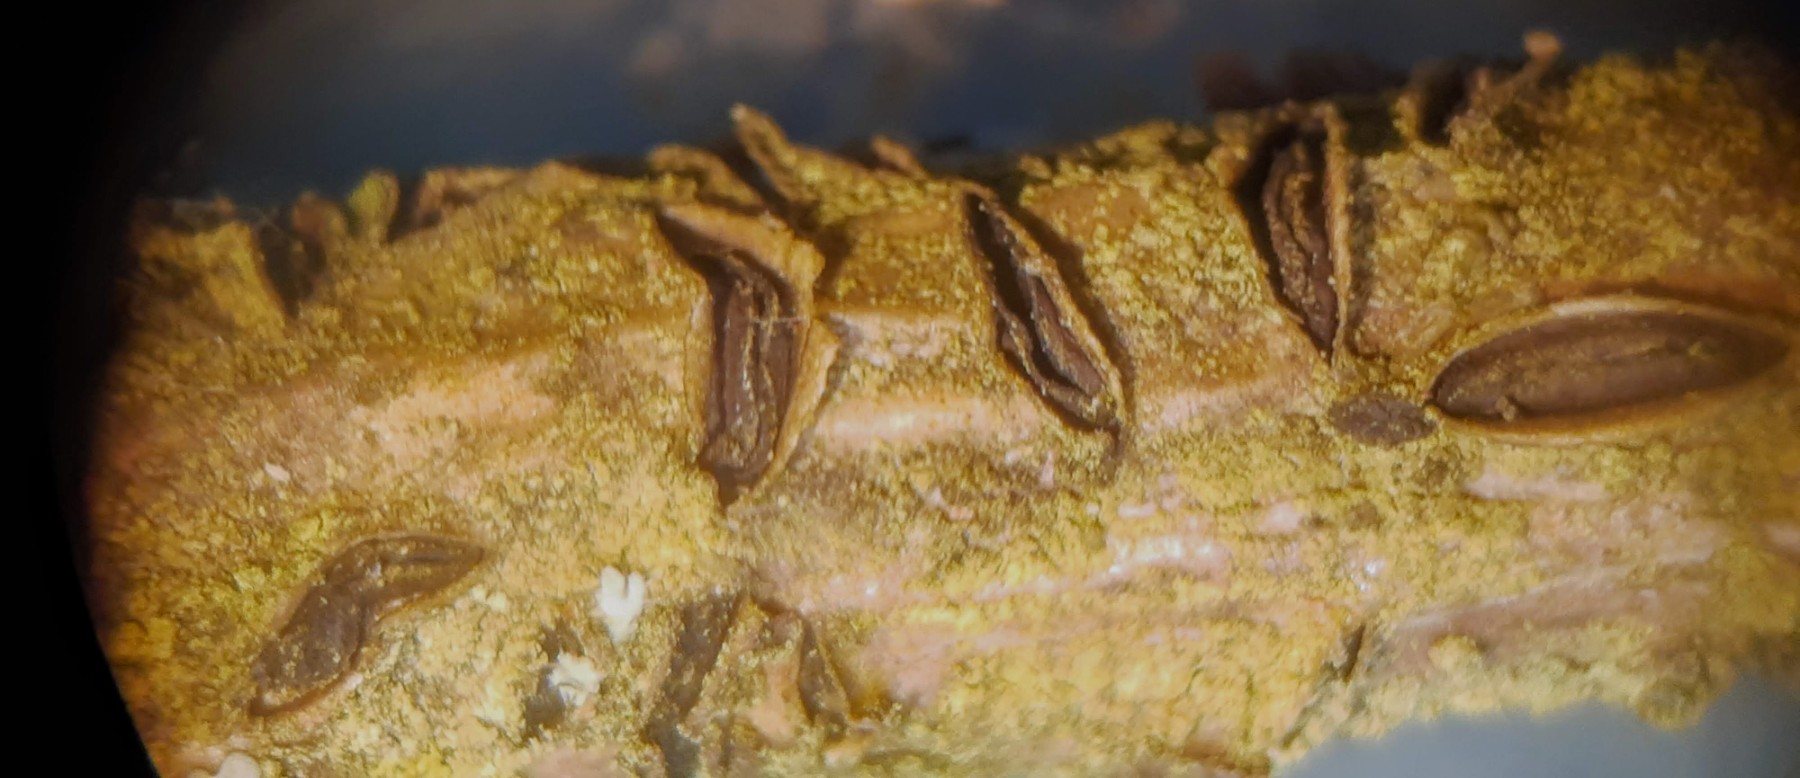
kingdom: Fungi
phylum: Ascomycota
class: Leotiomycetes
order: Rhytismatales
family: Rhytismataceae
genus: Colpoma
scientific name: Colpoma quercinum
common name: ege-sprækkeskive
